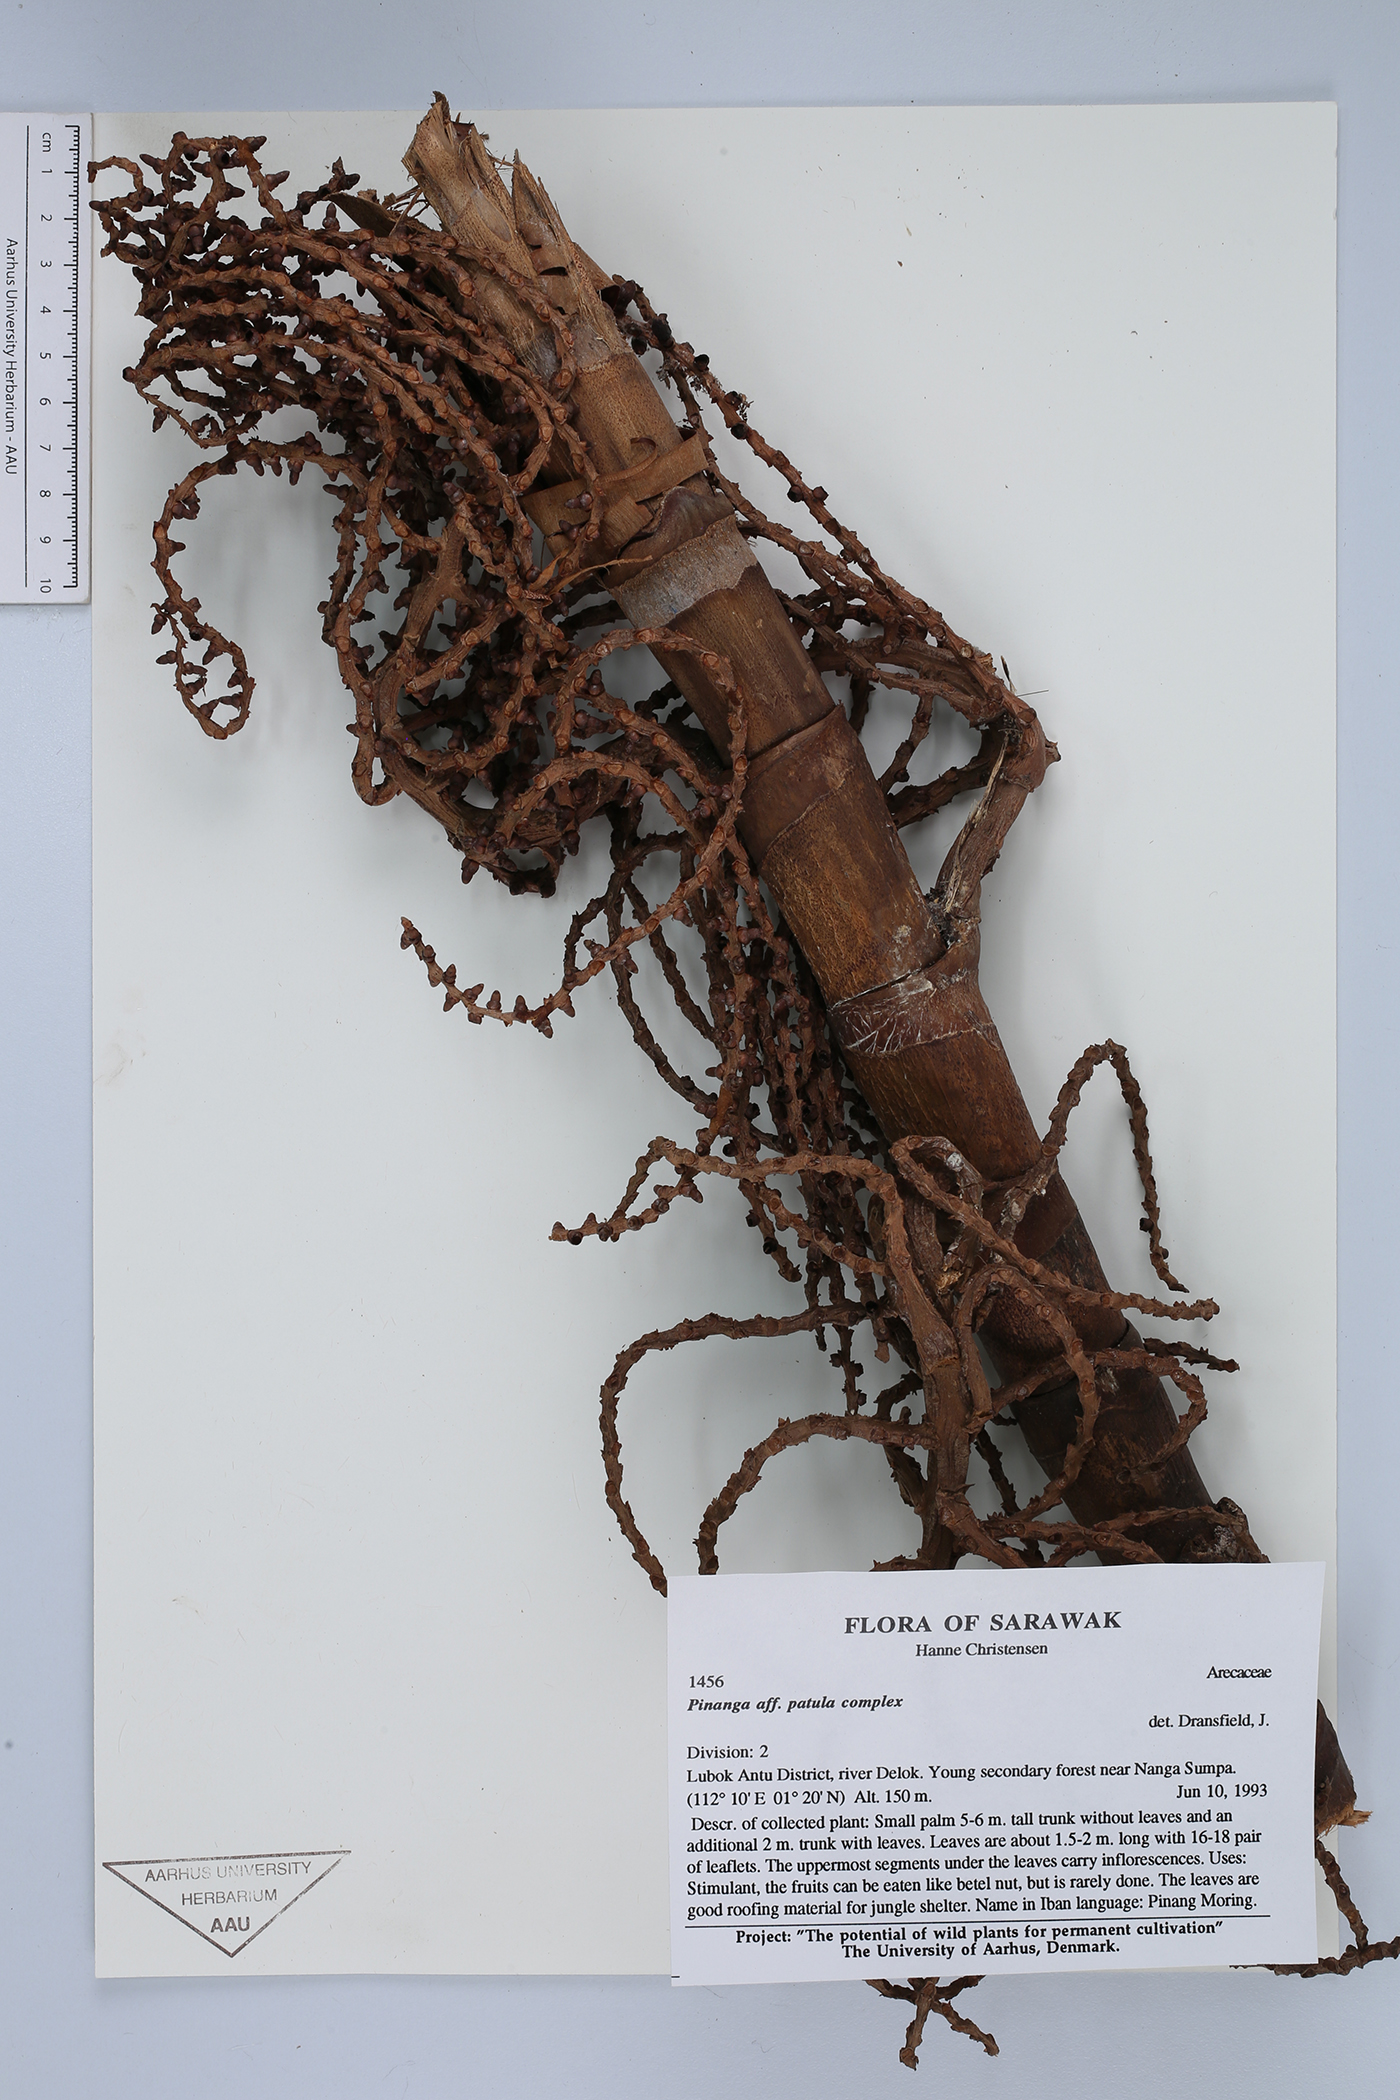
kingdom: Plantae
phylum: Tracheophyta
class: Liliopsida
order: Arecales
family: Arecaceae
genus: Pinanga
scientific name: Pinanga patula
